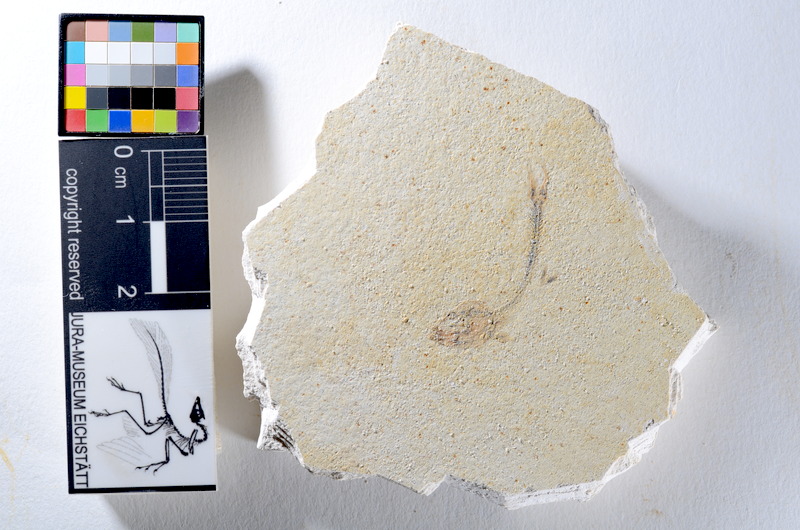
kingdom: Animalia
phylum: Chordata
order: Salmoniformes
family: Orthogonikleithridae
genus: Orthogonikleithrus
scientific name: Orthogonikleithrus hoelli
